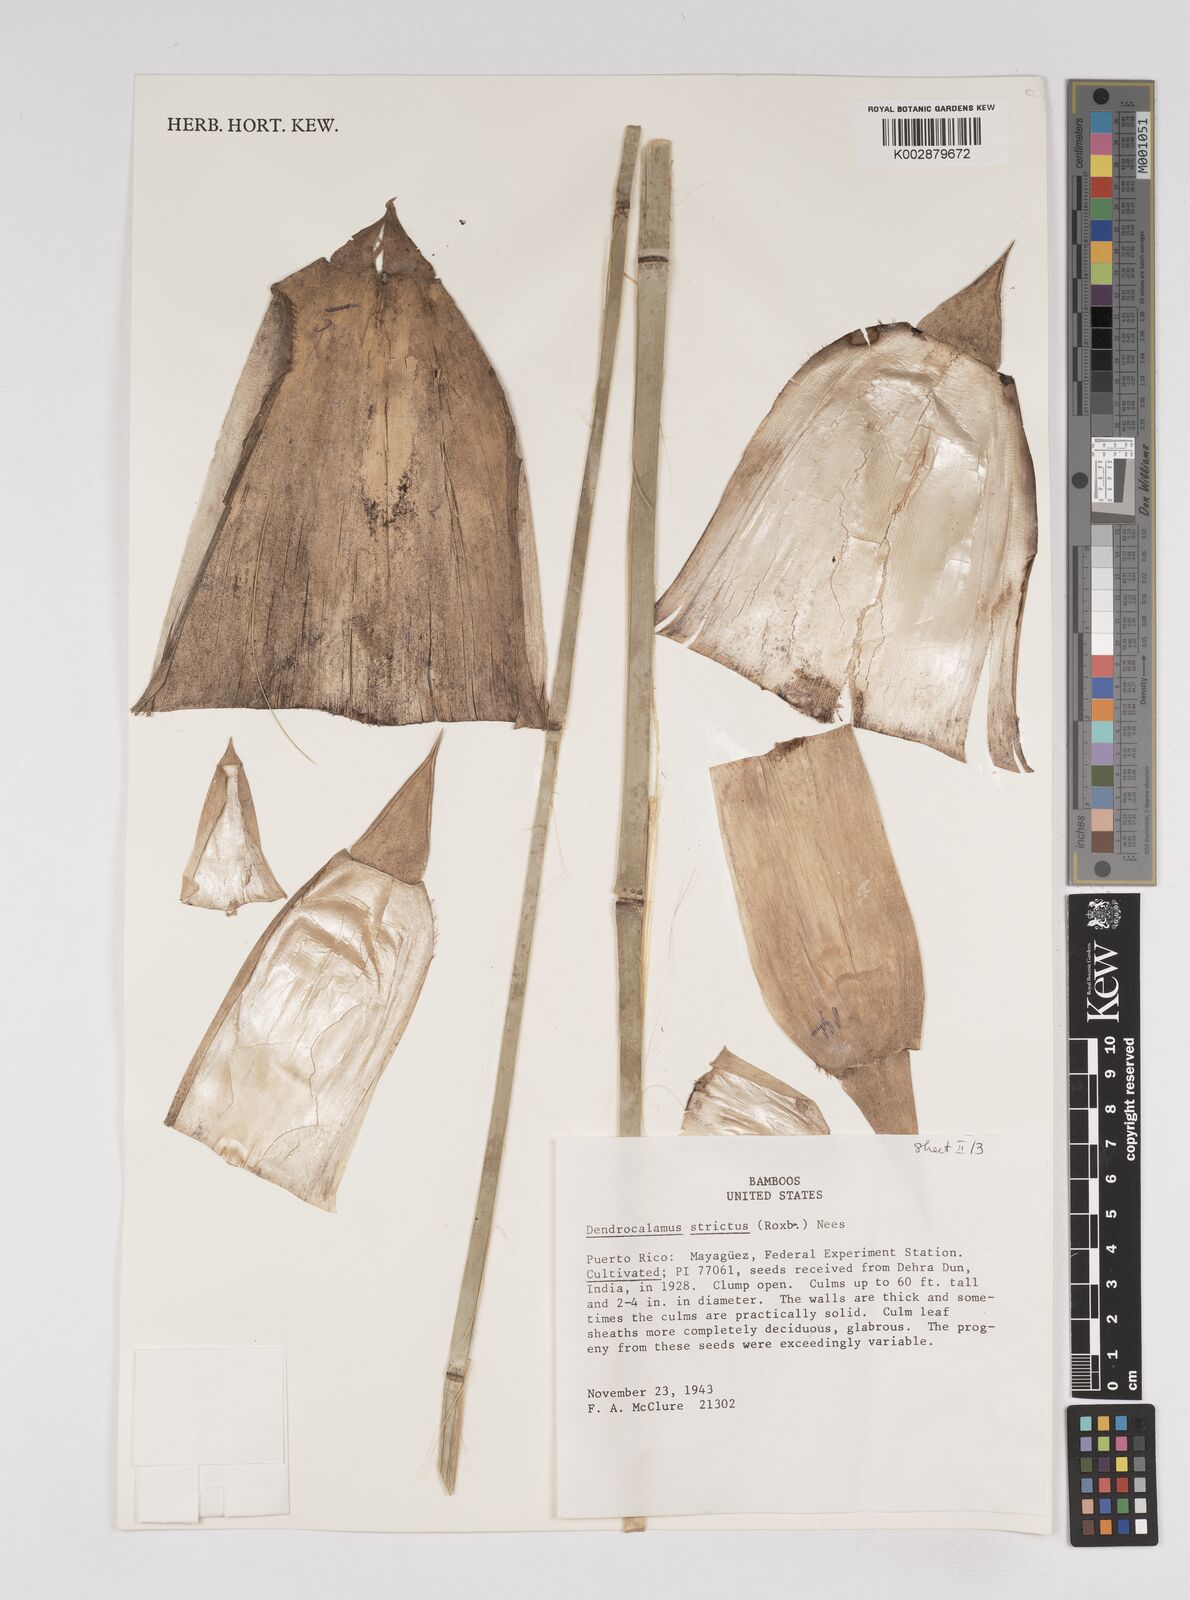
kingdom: Plantae
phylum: Tracheophyta
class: Liliopsida
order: Poales
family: Poaceae
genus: Dendrocalamus
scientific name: Dendrocalamus strictus
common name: Male bamboo
